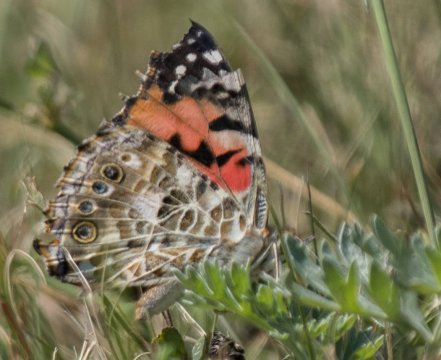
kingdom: Animalia
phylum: Arthropoda
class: Insecta
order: Lepidoptera
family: Nymphalidae
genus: Vanessa
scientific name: Vanessa cardui
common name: Painted Lady
